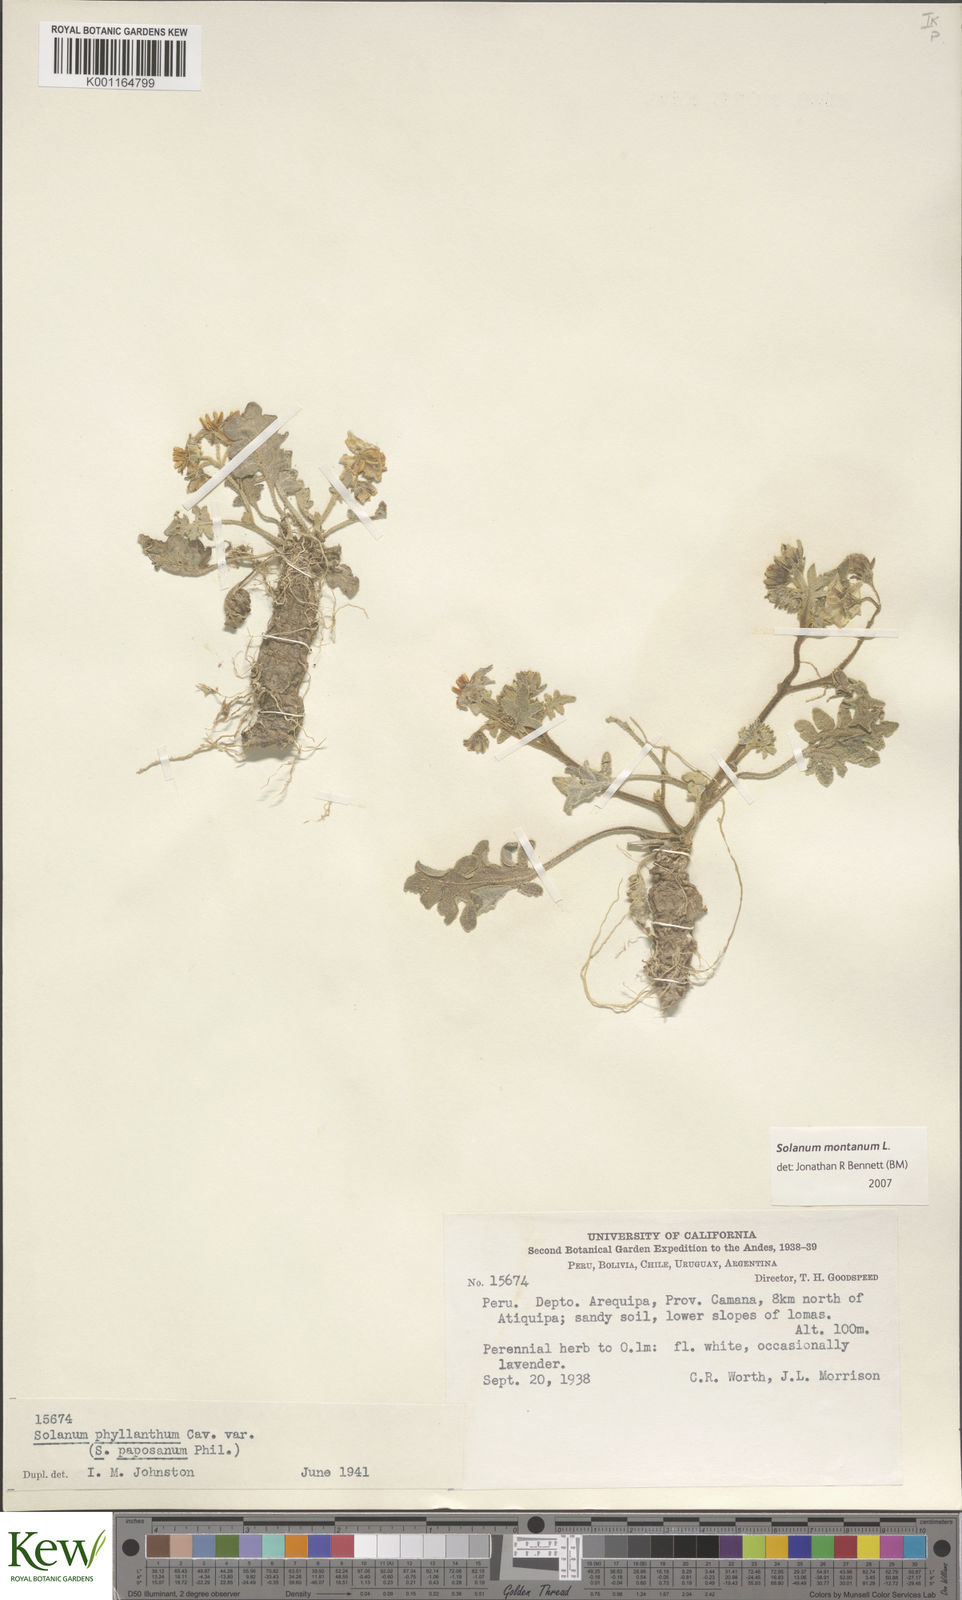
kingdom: Plantae
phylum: Tracheophyta
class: Magnoliopsida
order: Solanales
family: Solanaceae
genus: Solanum
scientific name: Solanum montanum
